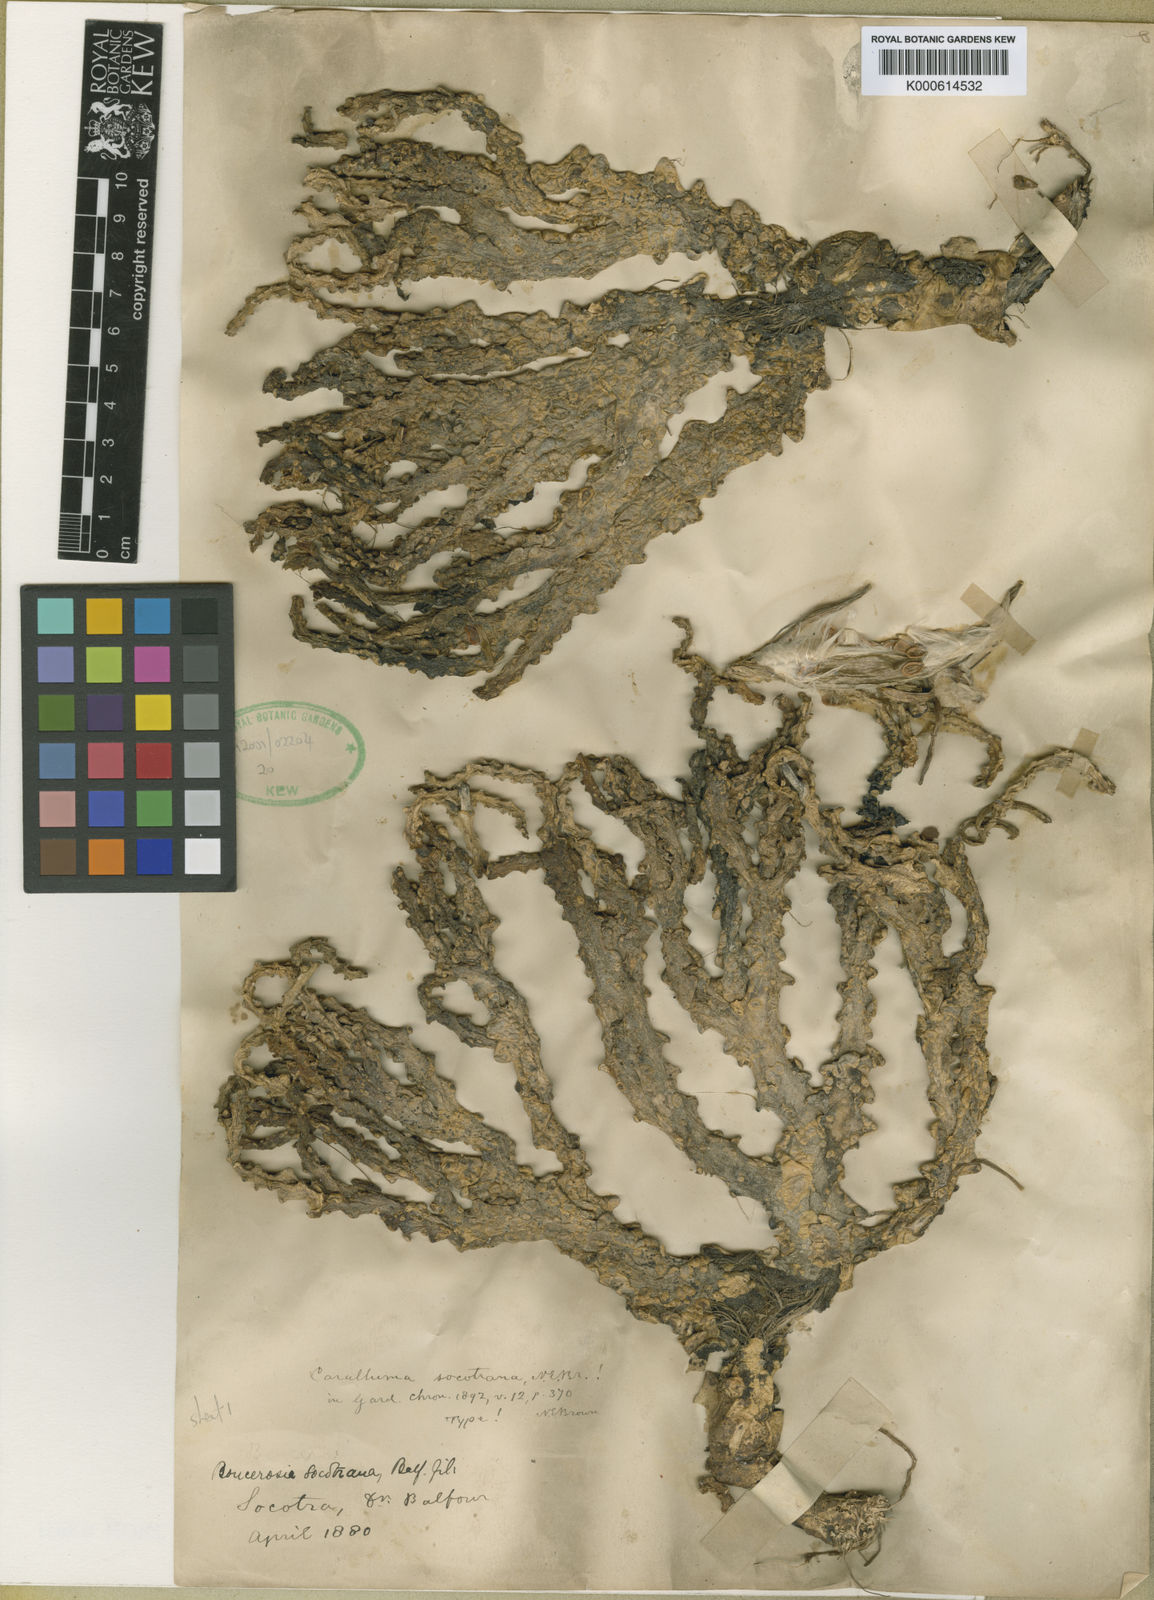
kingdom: Plantae
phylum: Tracheophyta
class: Magnoliopsida
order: Gentianales
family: Apocynaceae
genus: Ceropegia
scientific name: Ceropegia socotrana
